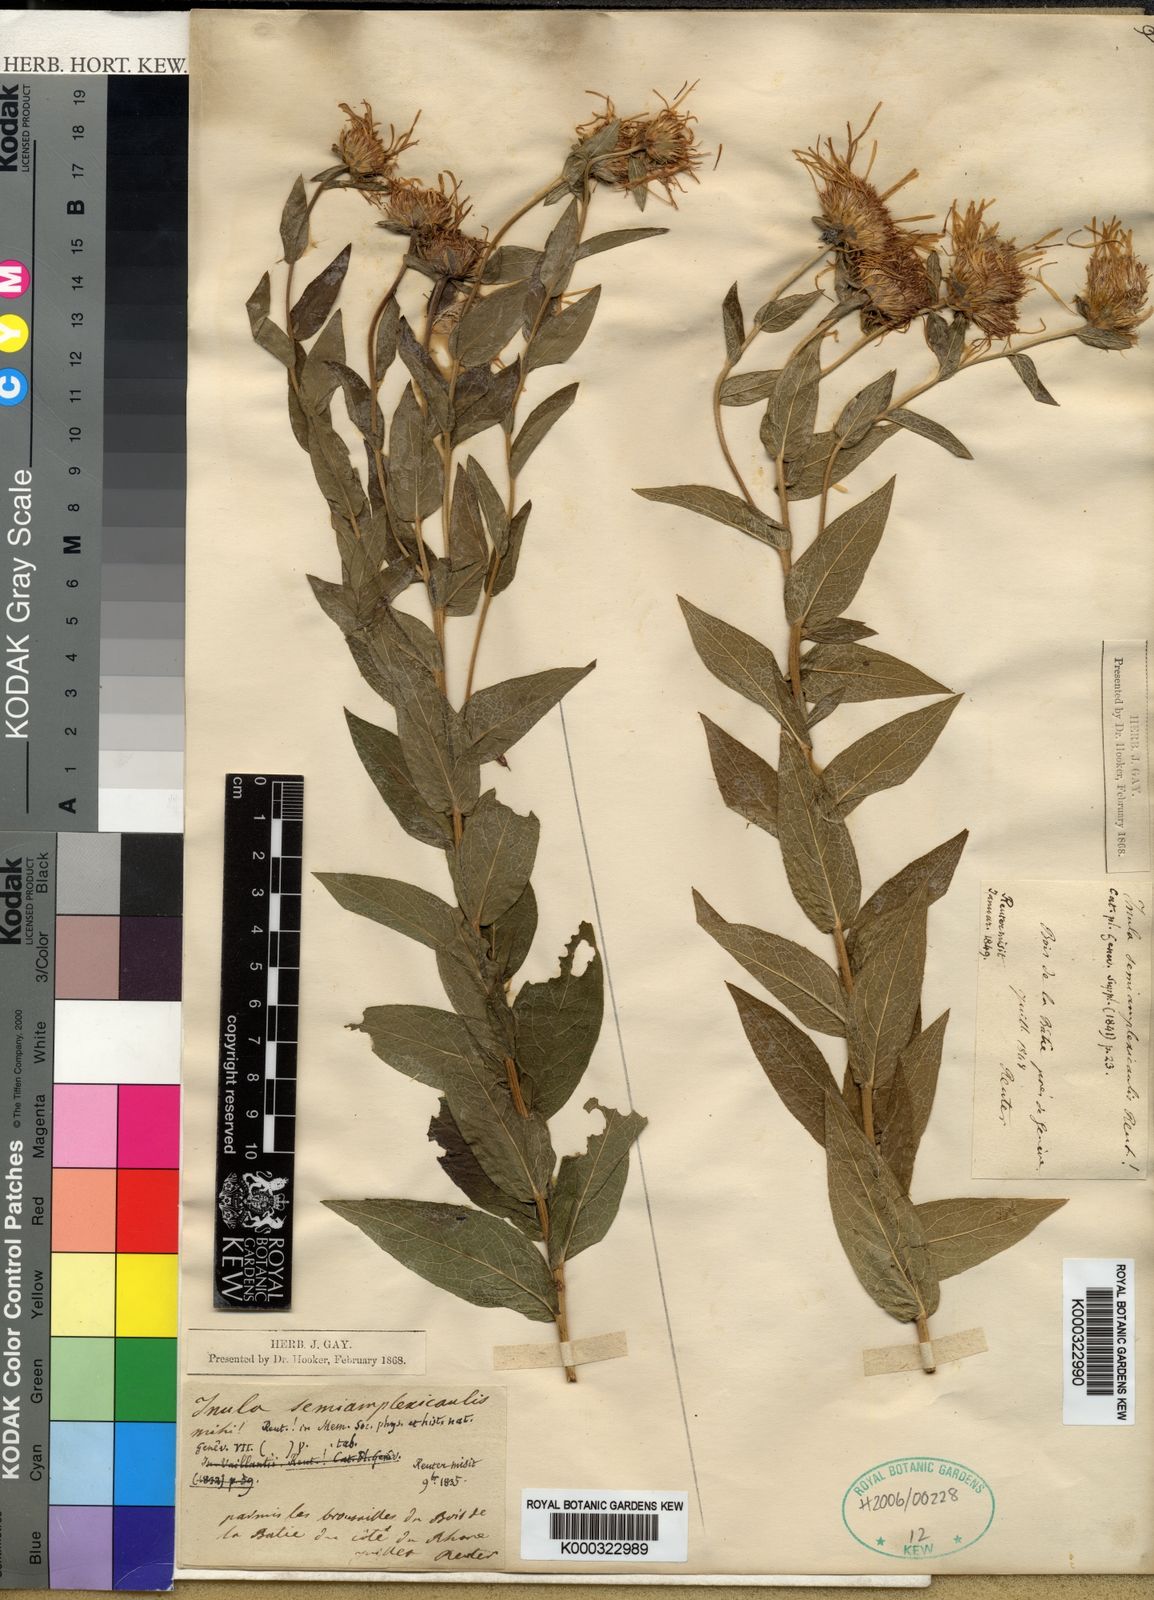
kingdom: Plantae
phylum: Tracheophyta
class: Magnoliopsida
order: Asterales
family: Asteraceae
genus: Pentanema
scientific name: Pentanema salicinum
